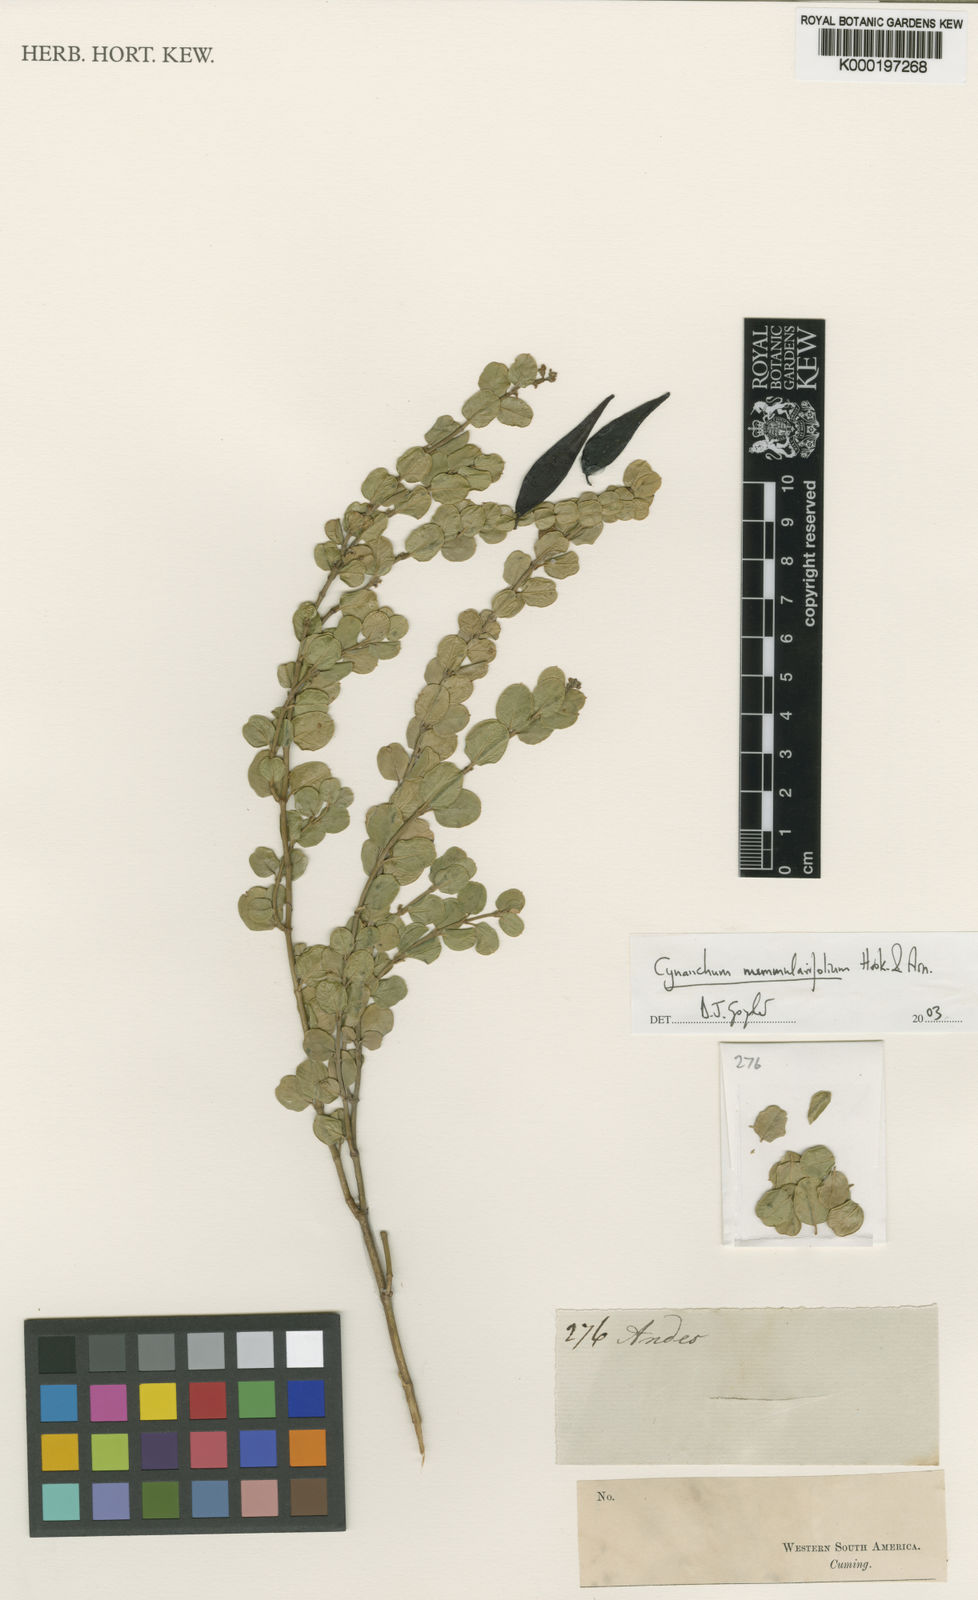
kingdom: Plantae
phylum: Tracheophyta
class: Magnoliopsida
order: Gentianales
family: Apocynaceae
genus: Diplolepis
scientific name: Diplolepis nummulariifolia
